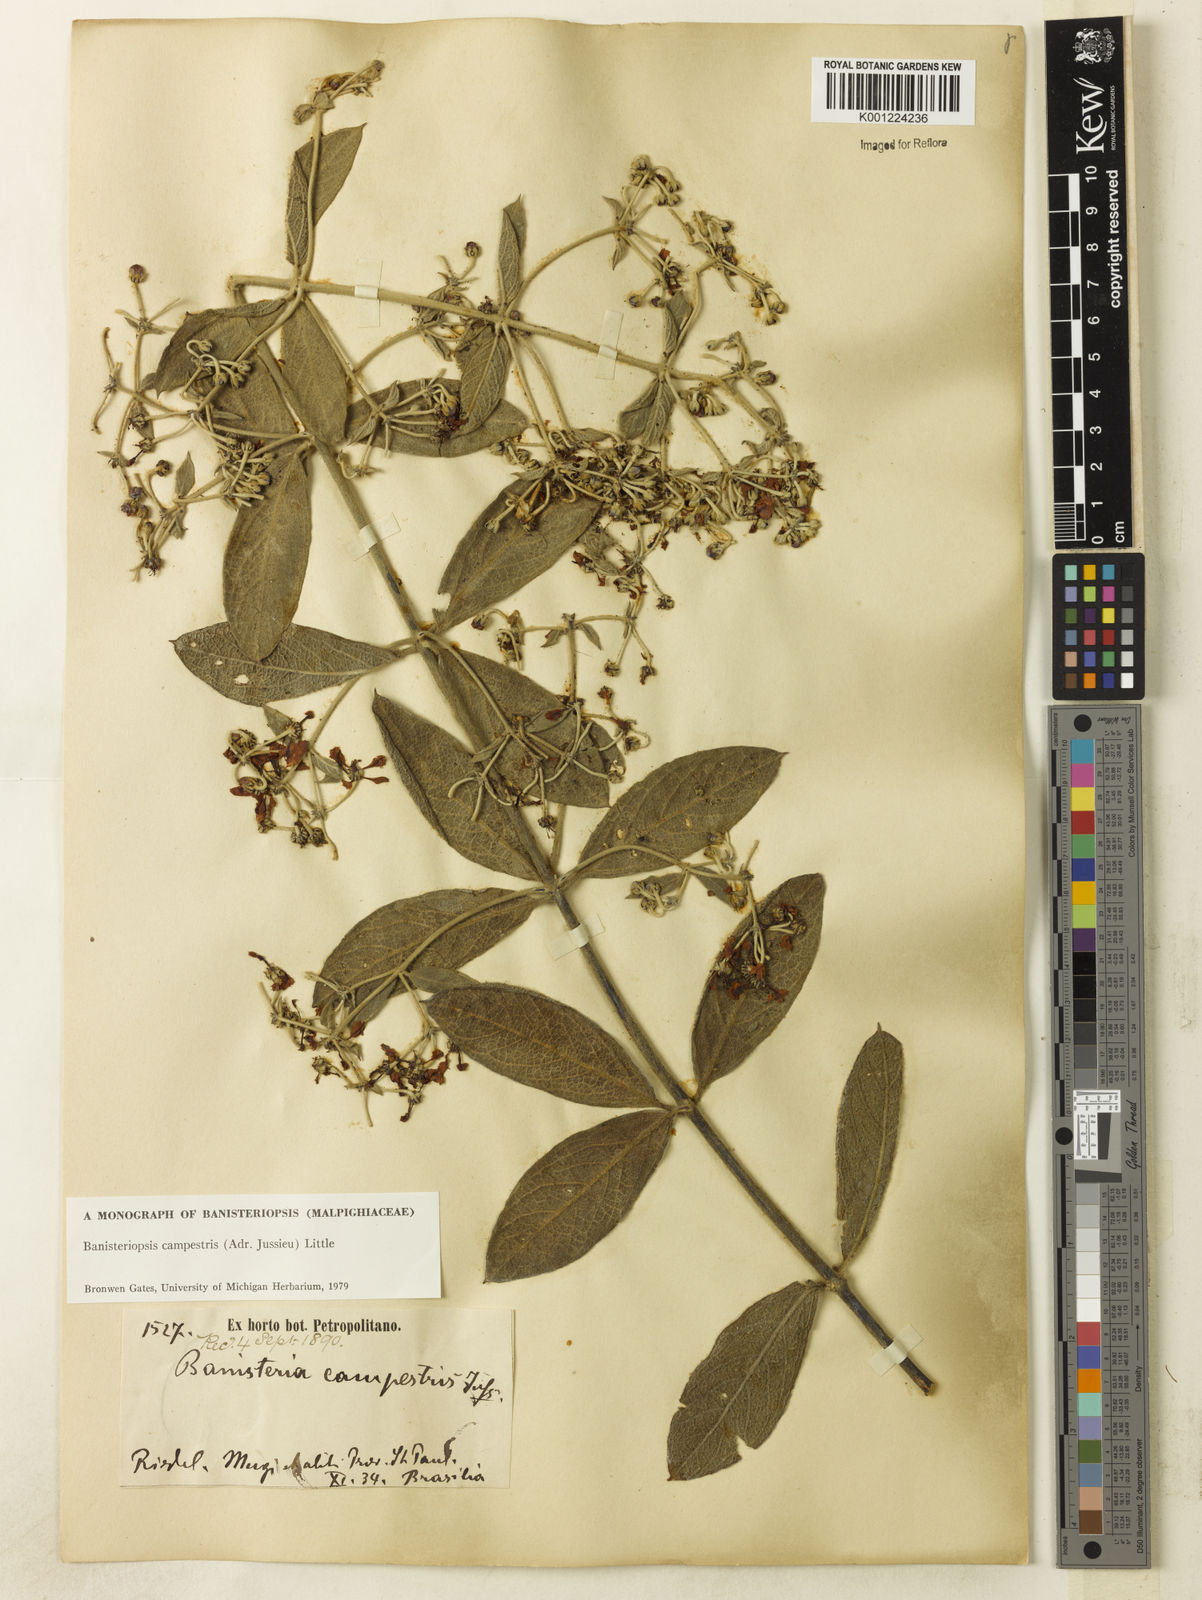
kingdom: Plantae
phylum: Tracheophyta
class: Magnoliopsida
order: Malpighiales
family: Malpighiaceae
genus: Banisteriopsis
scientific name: Banisteriopsis campestris
